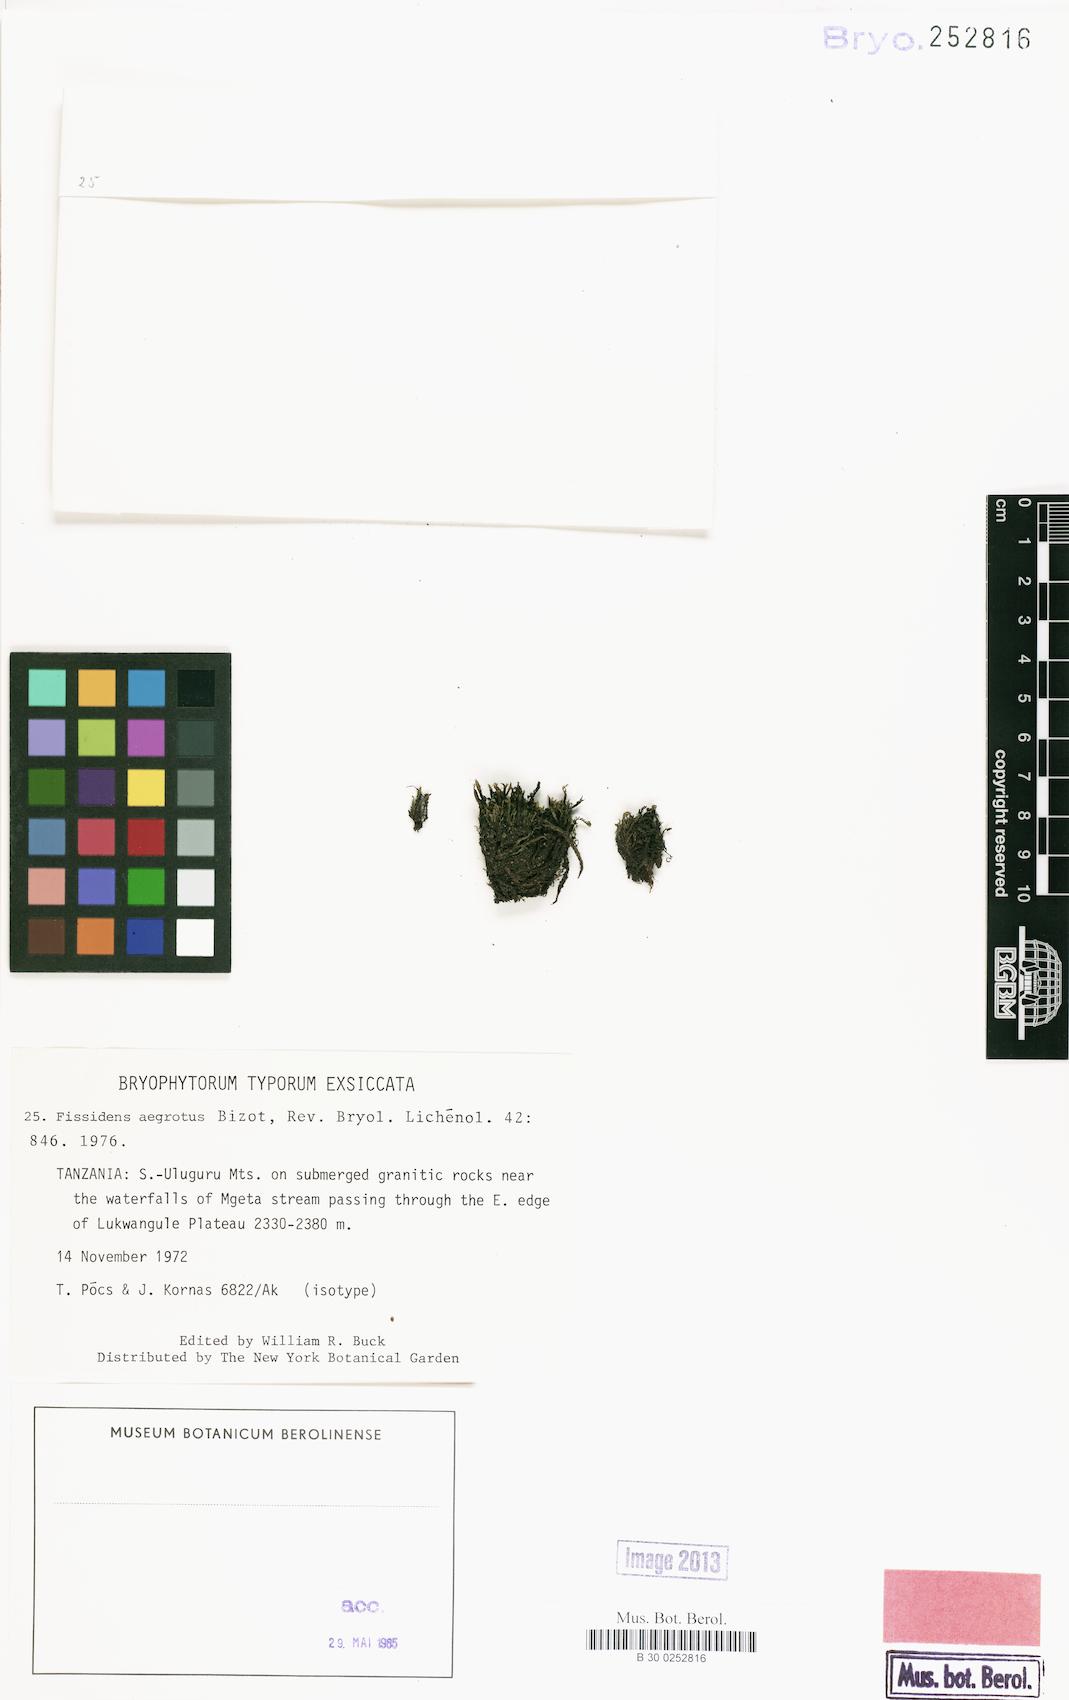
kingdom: Plantae
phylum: Bryophyta
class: Bryopsida
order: Dicranales
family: Fissidentaceae
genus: Fissidens
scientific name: Fissidens asplenioides
